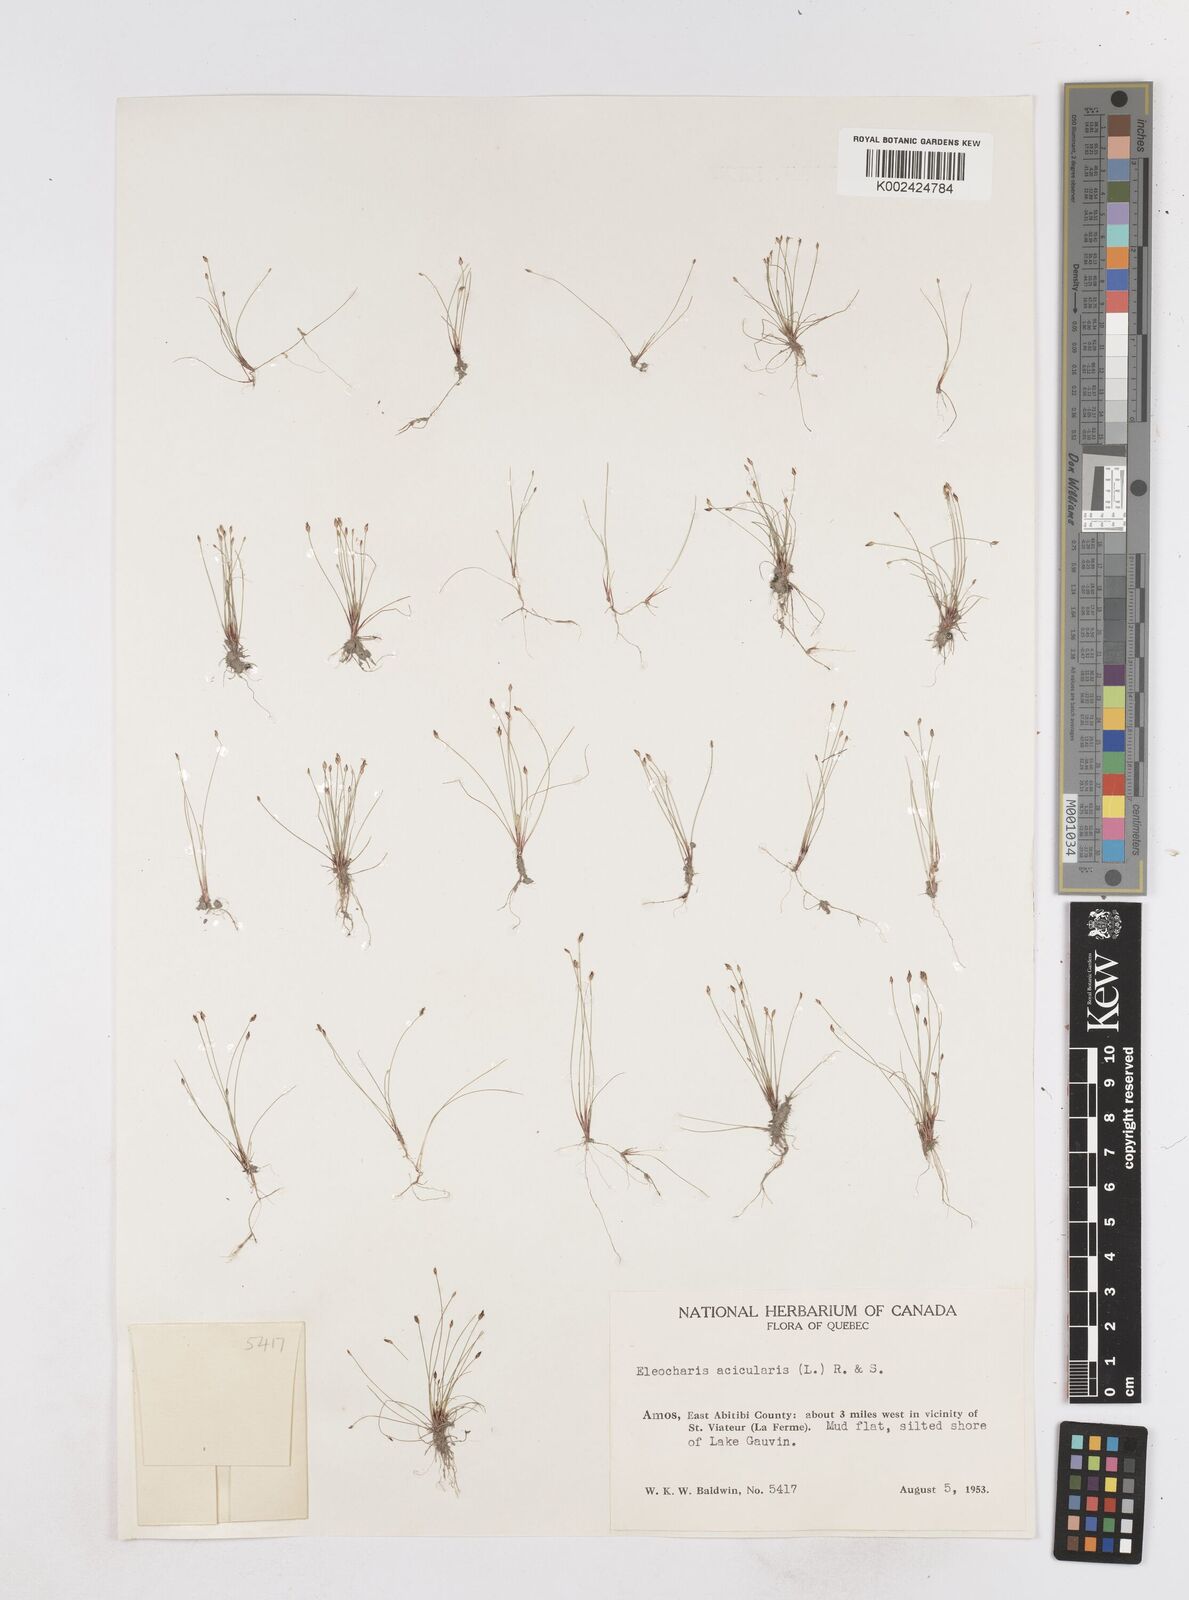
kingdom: Plantae
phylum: Tracheophyta
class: Liliopsida
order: Poales
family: Cyperaceae
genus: Eleocharis
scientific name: Eleocharis acicularis
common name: Needle spike-rush
